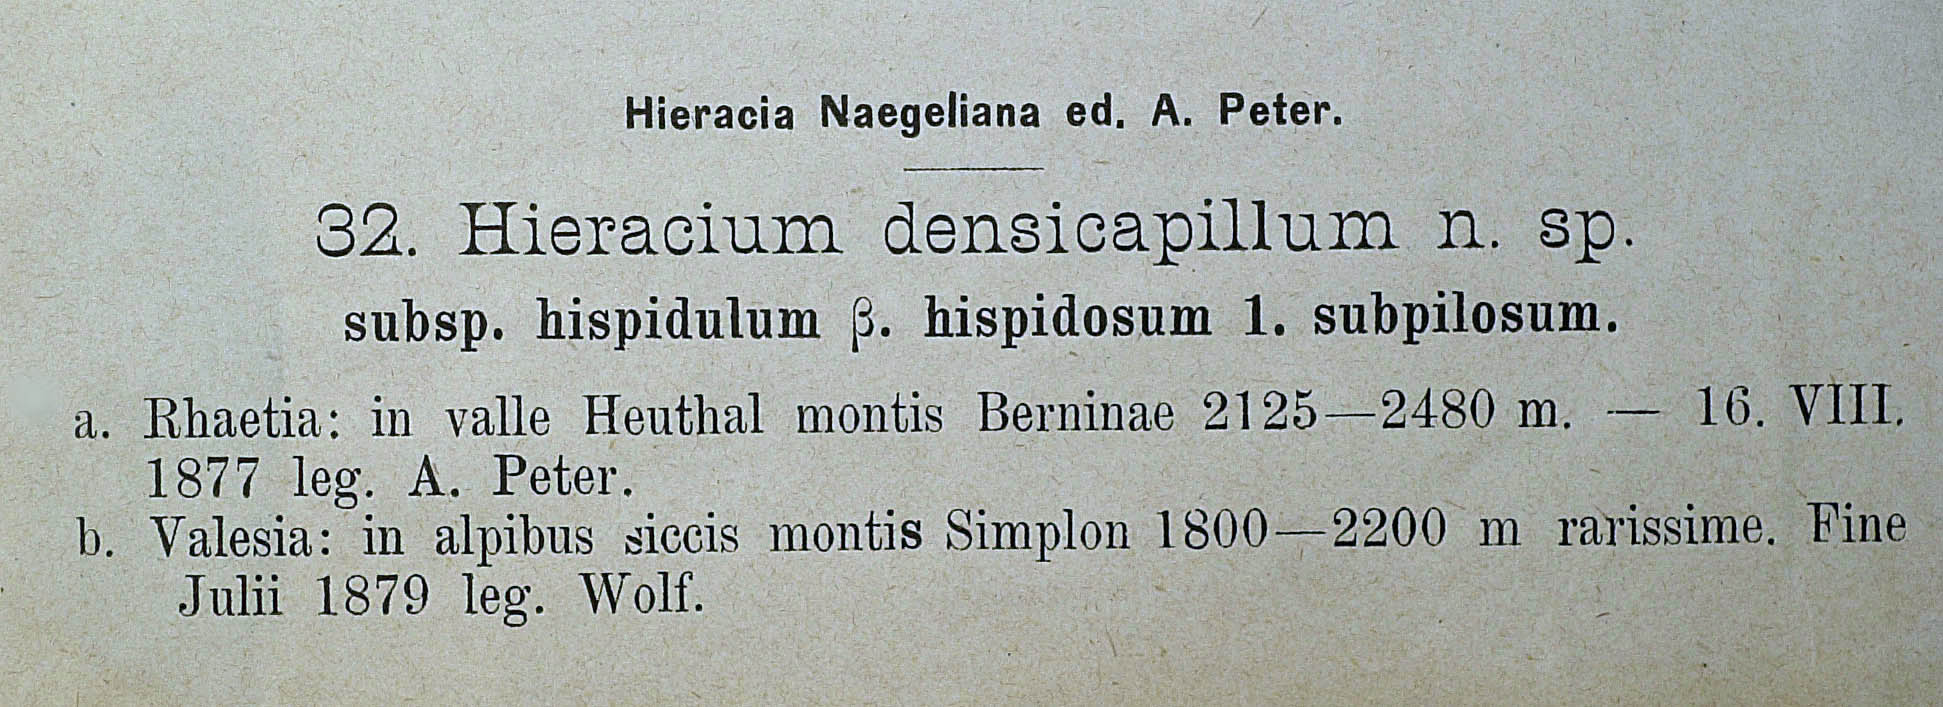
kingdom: Plantae
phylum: Tracheophyta
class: Magnoliopsida
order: Asterales
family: Asteraceae
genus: Hieracium
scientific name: Hieracium jordanii
